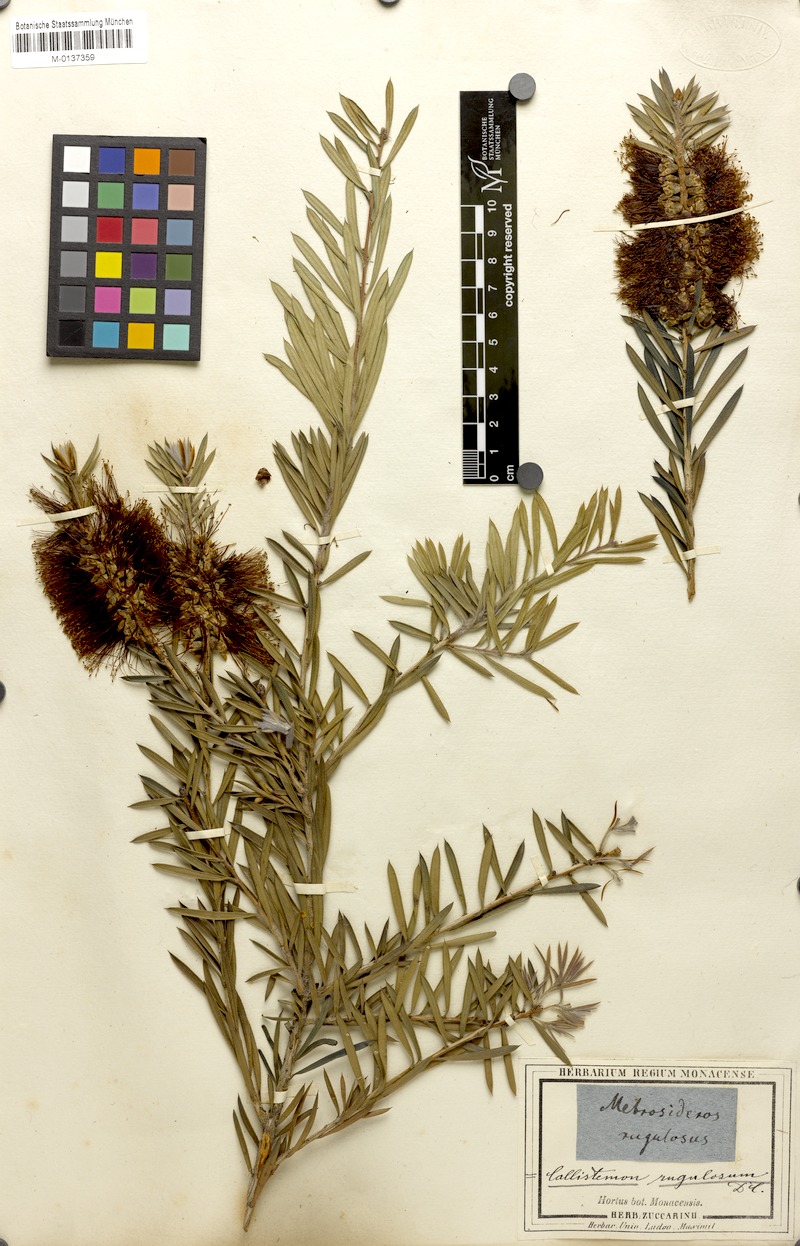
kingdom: Plantae
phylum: Tracheophyta
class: Magnoliopsida
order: Myrtales
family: Myrtaceae
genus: Callistemon
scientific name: Callistemon rugulosus
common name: Scarlet bottlebrush
